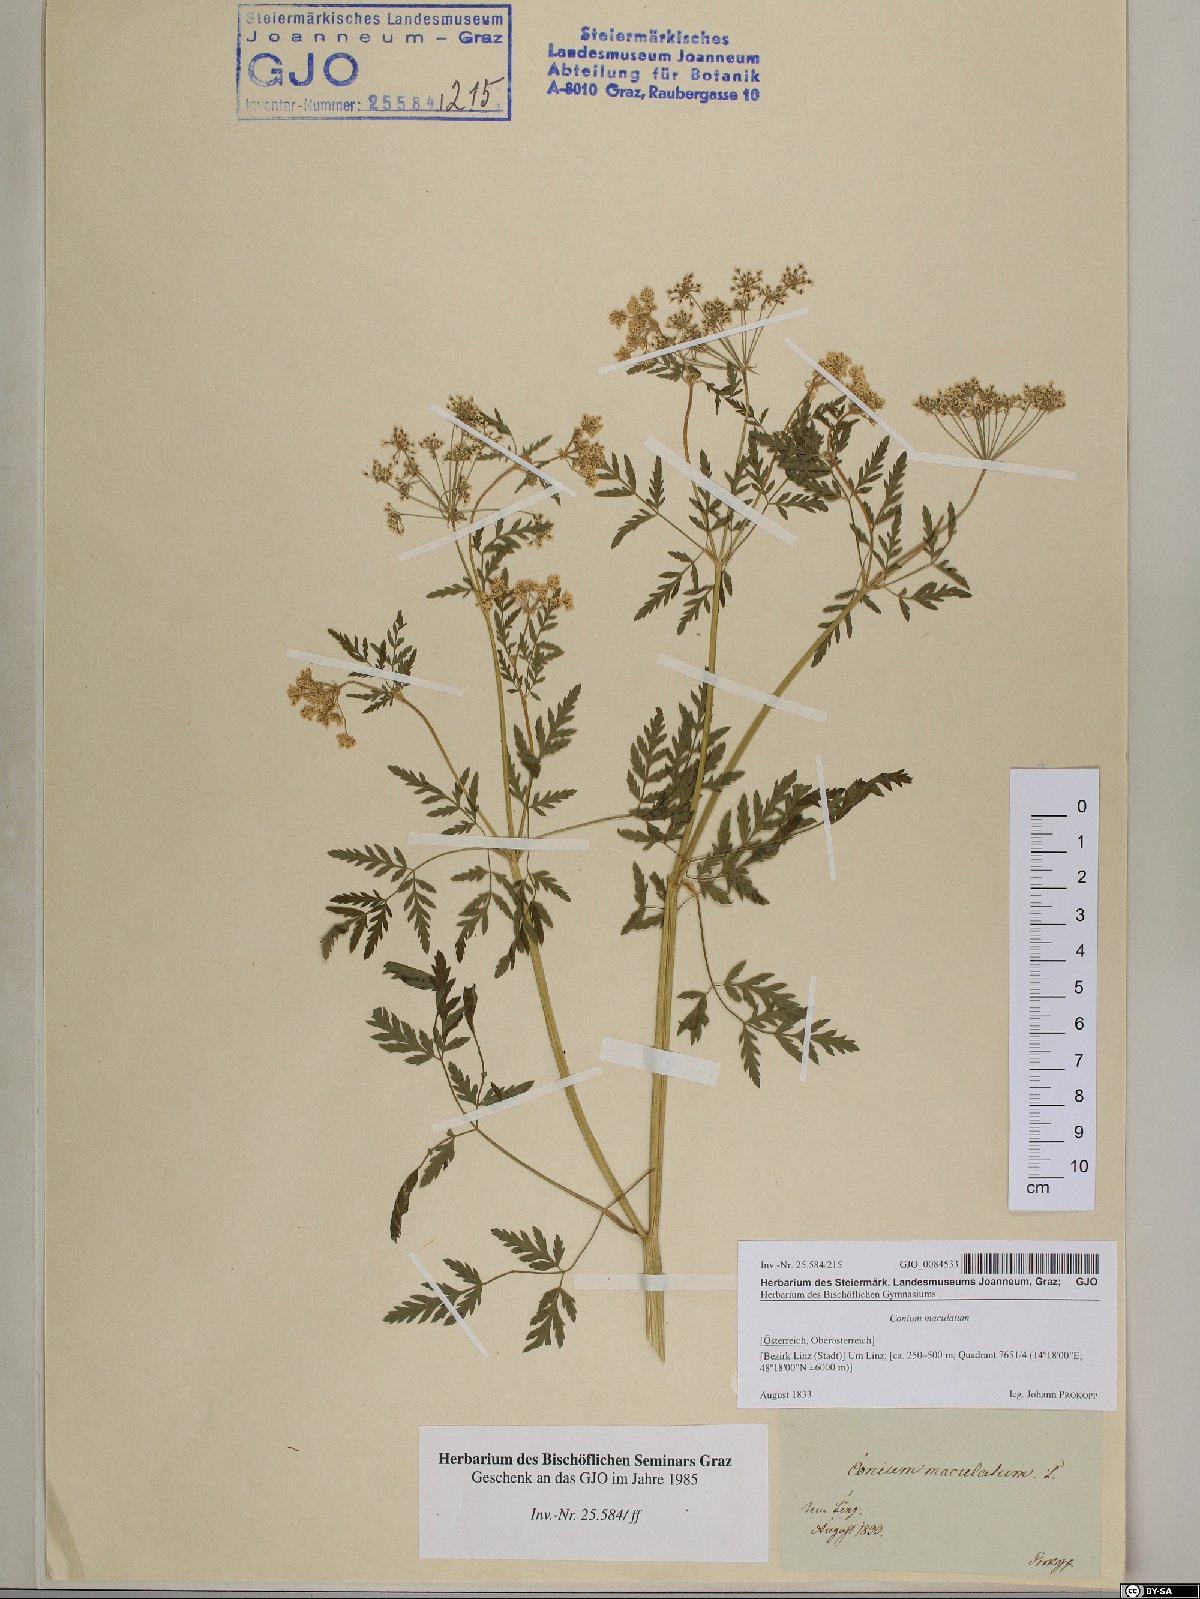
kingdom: Plantae
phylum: Tracheophyta
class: Magnoliopsida
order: Apiales
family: Apiaceae
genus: Conium
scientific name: Conium maculatum
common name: Hemlock
